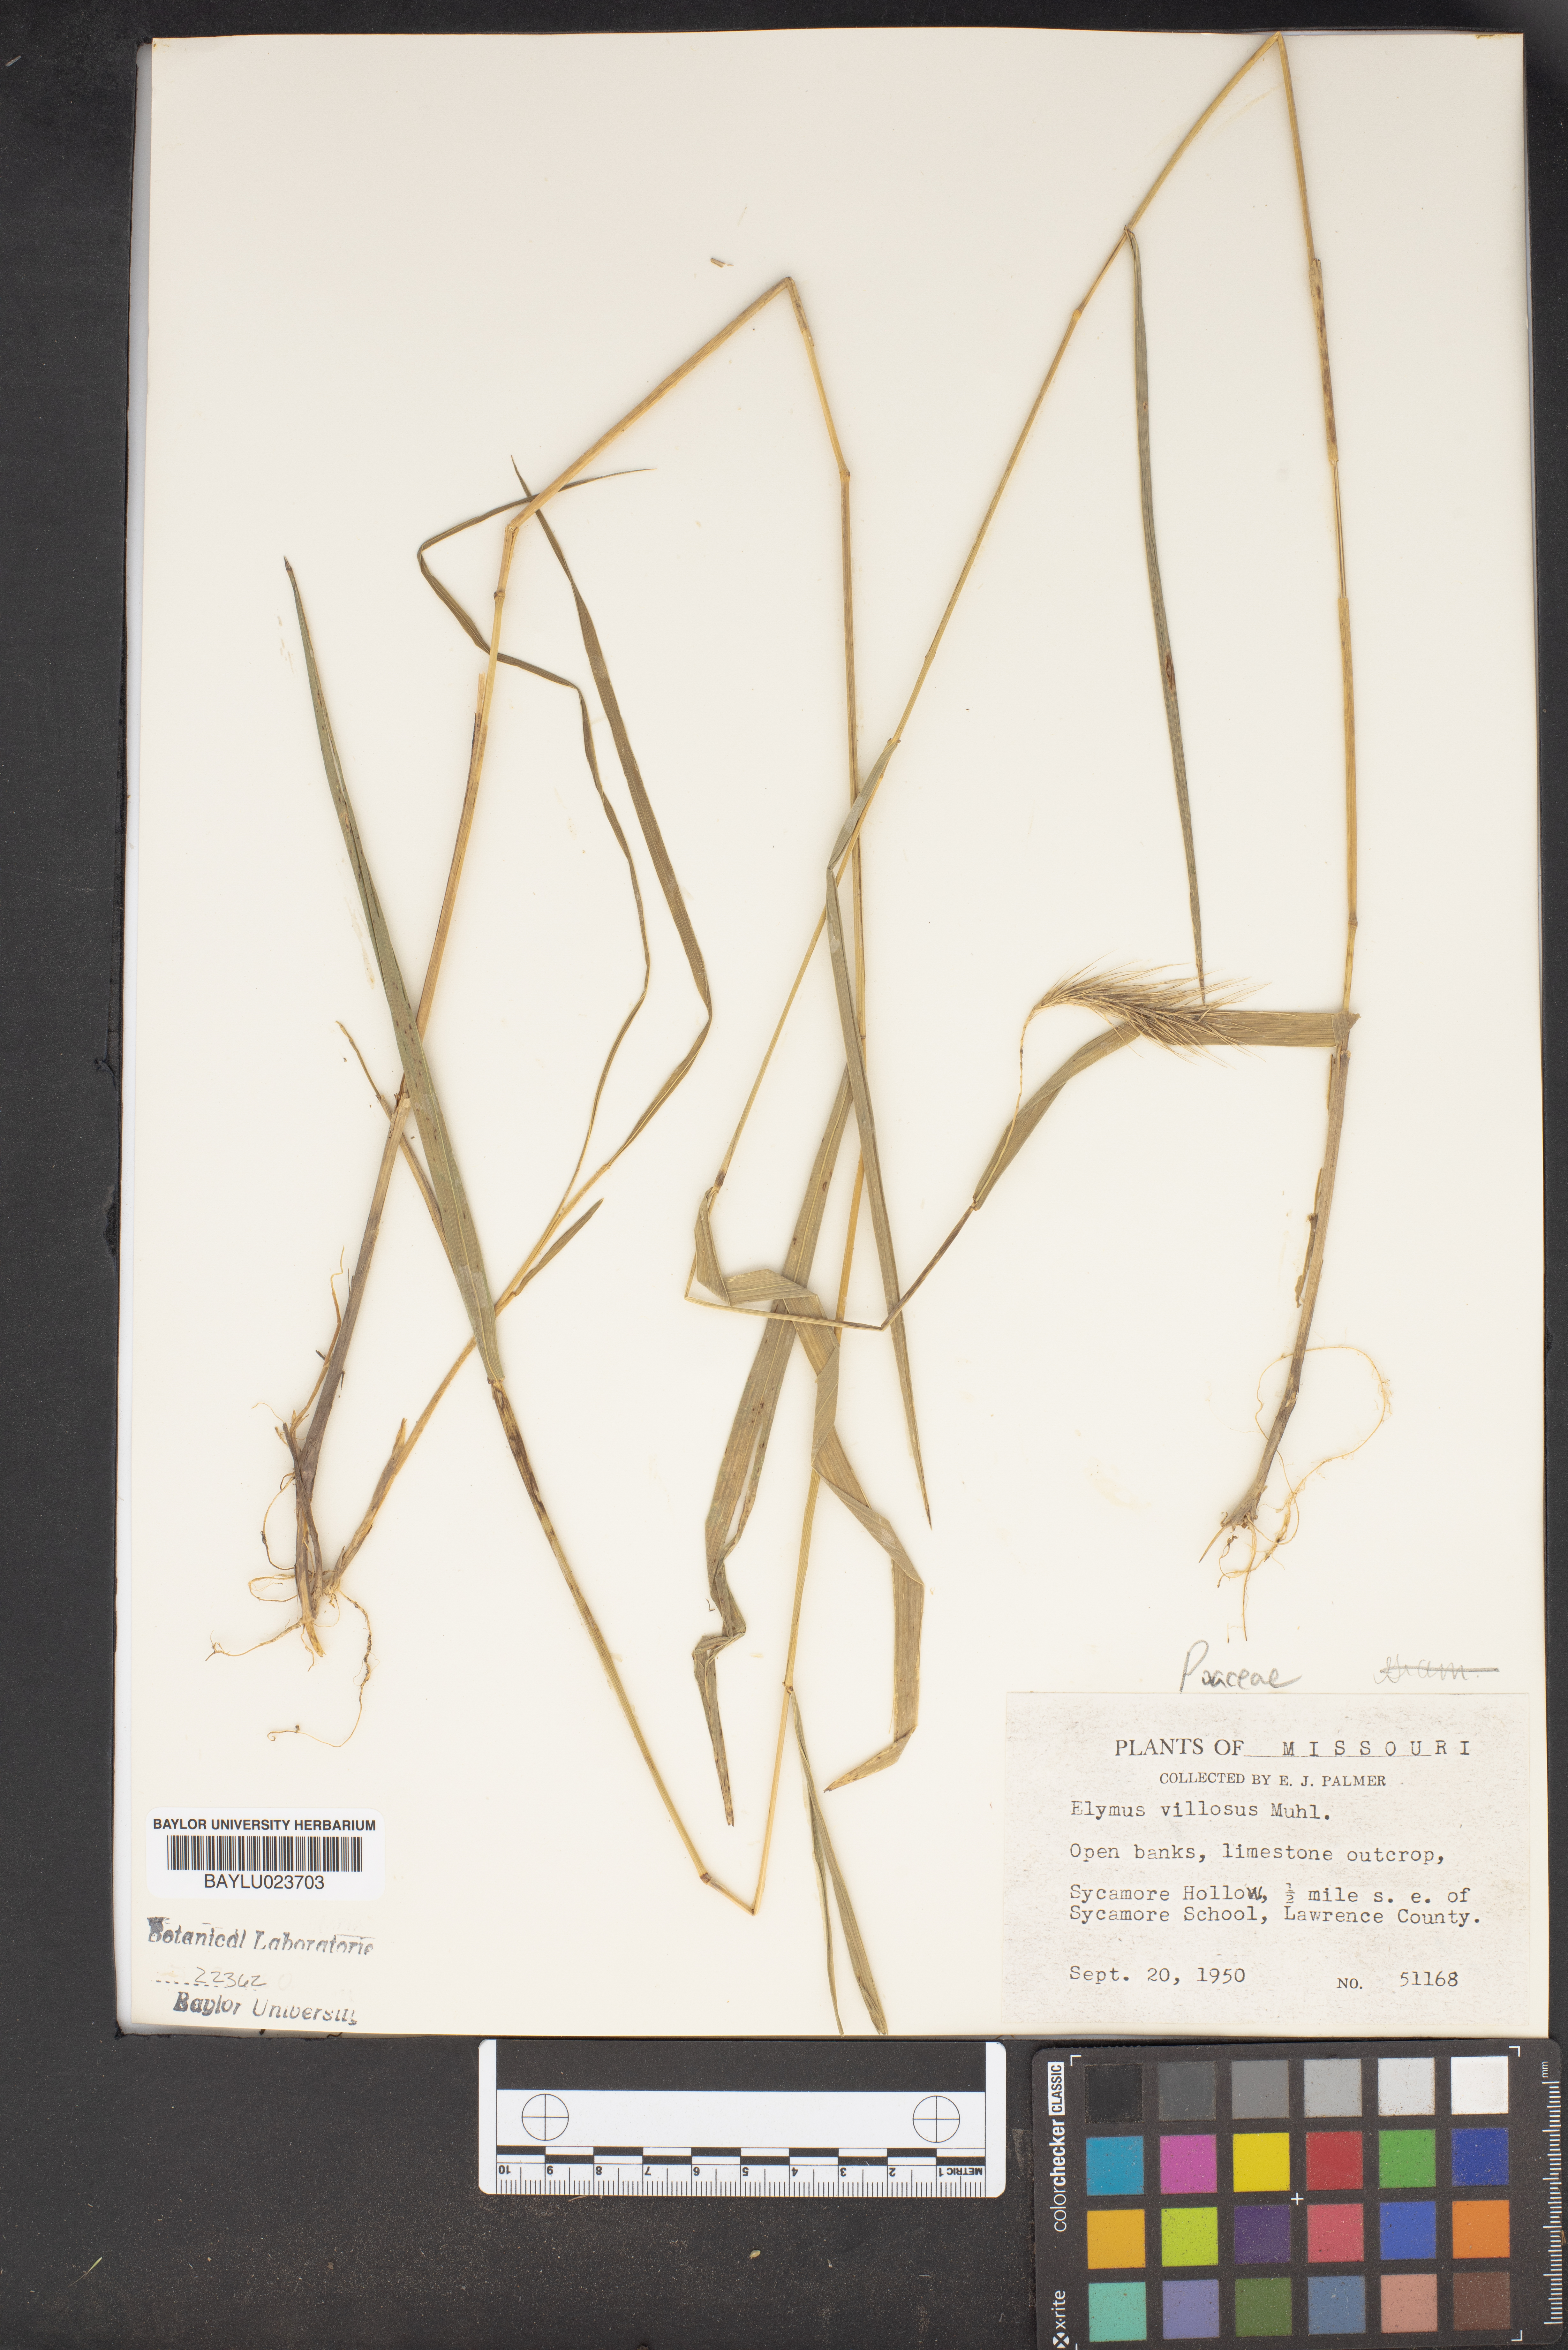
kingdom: Plantae
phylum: Tracheophyta
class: Liliopsida
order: Poales
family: Poaceae
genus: Elymus
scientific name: Elymus villosus
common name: Downy wild rye
